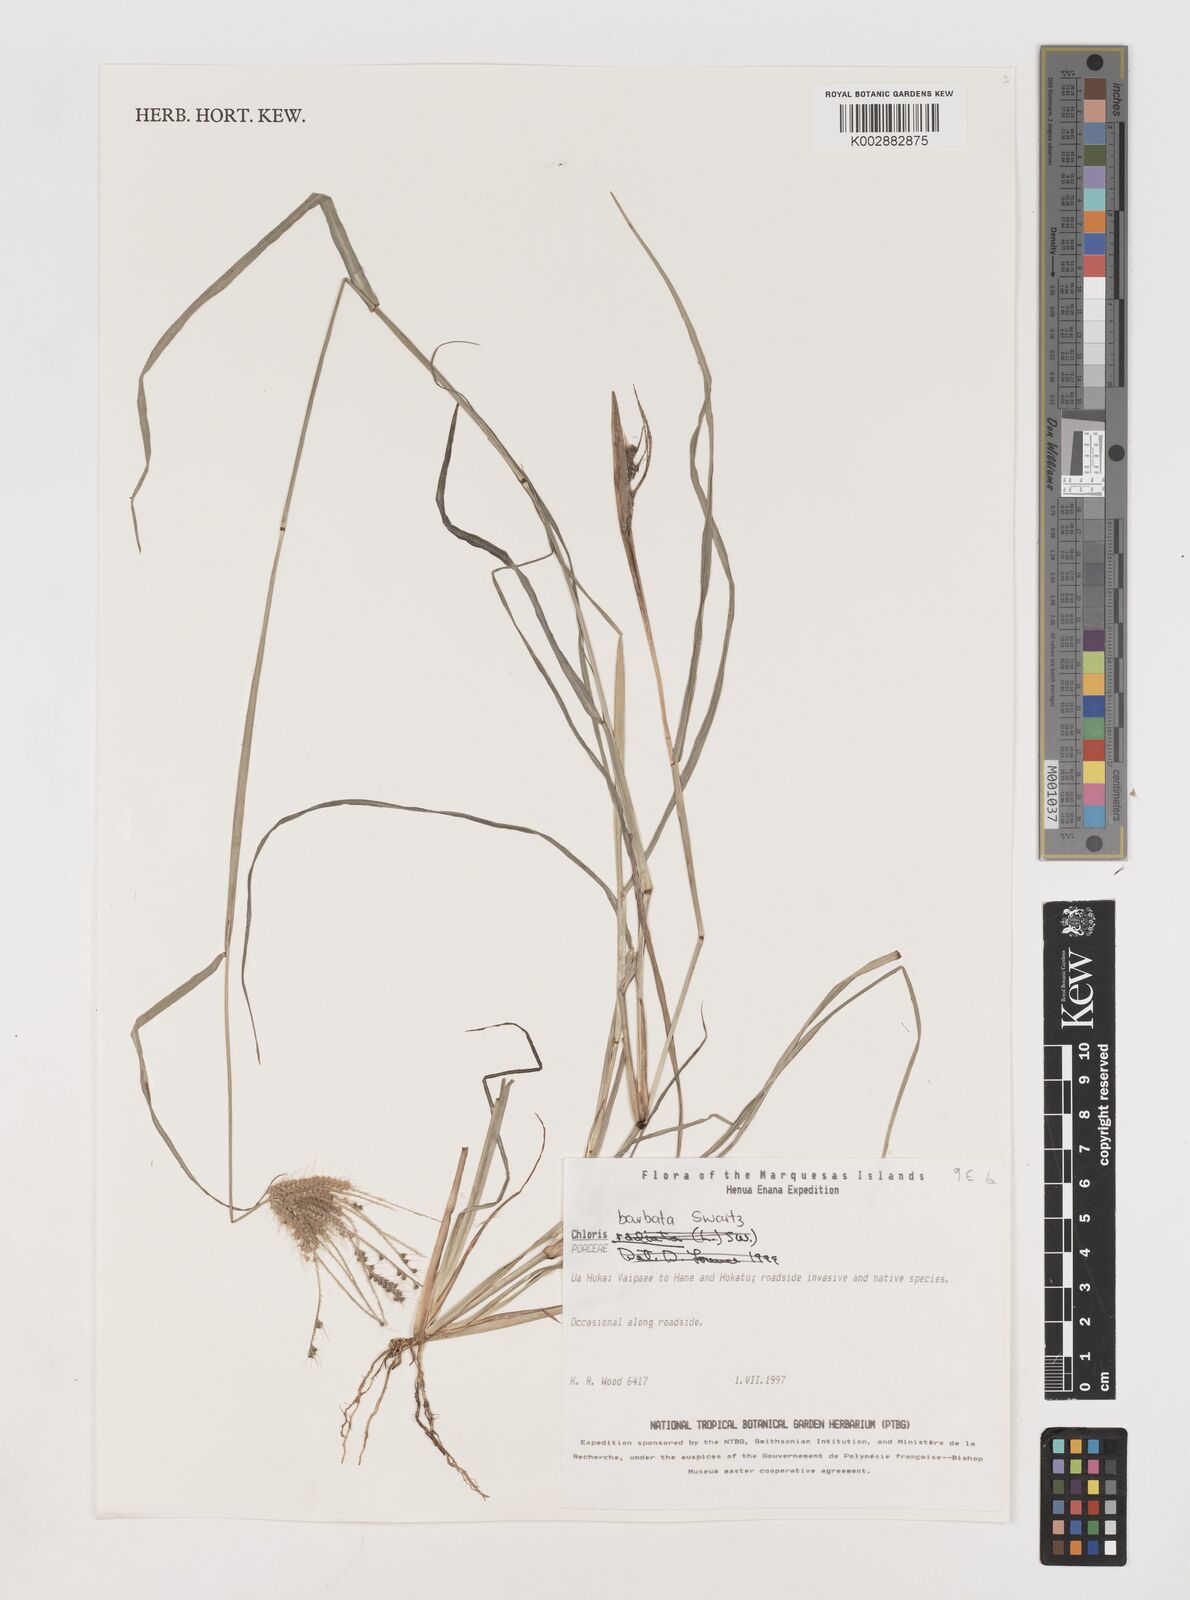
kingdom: Plantae
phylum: Tracheophyta
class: Liliopsida
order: Poales
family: Poaceae
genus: Chloris
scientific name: Chloris barbata
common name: Swollen fingergrass
